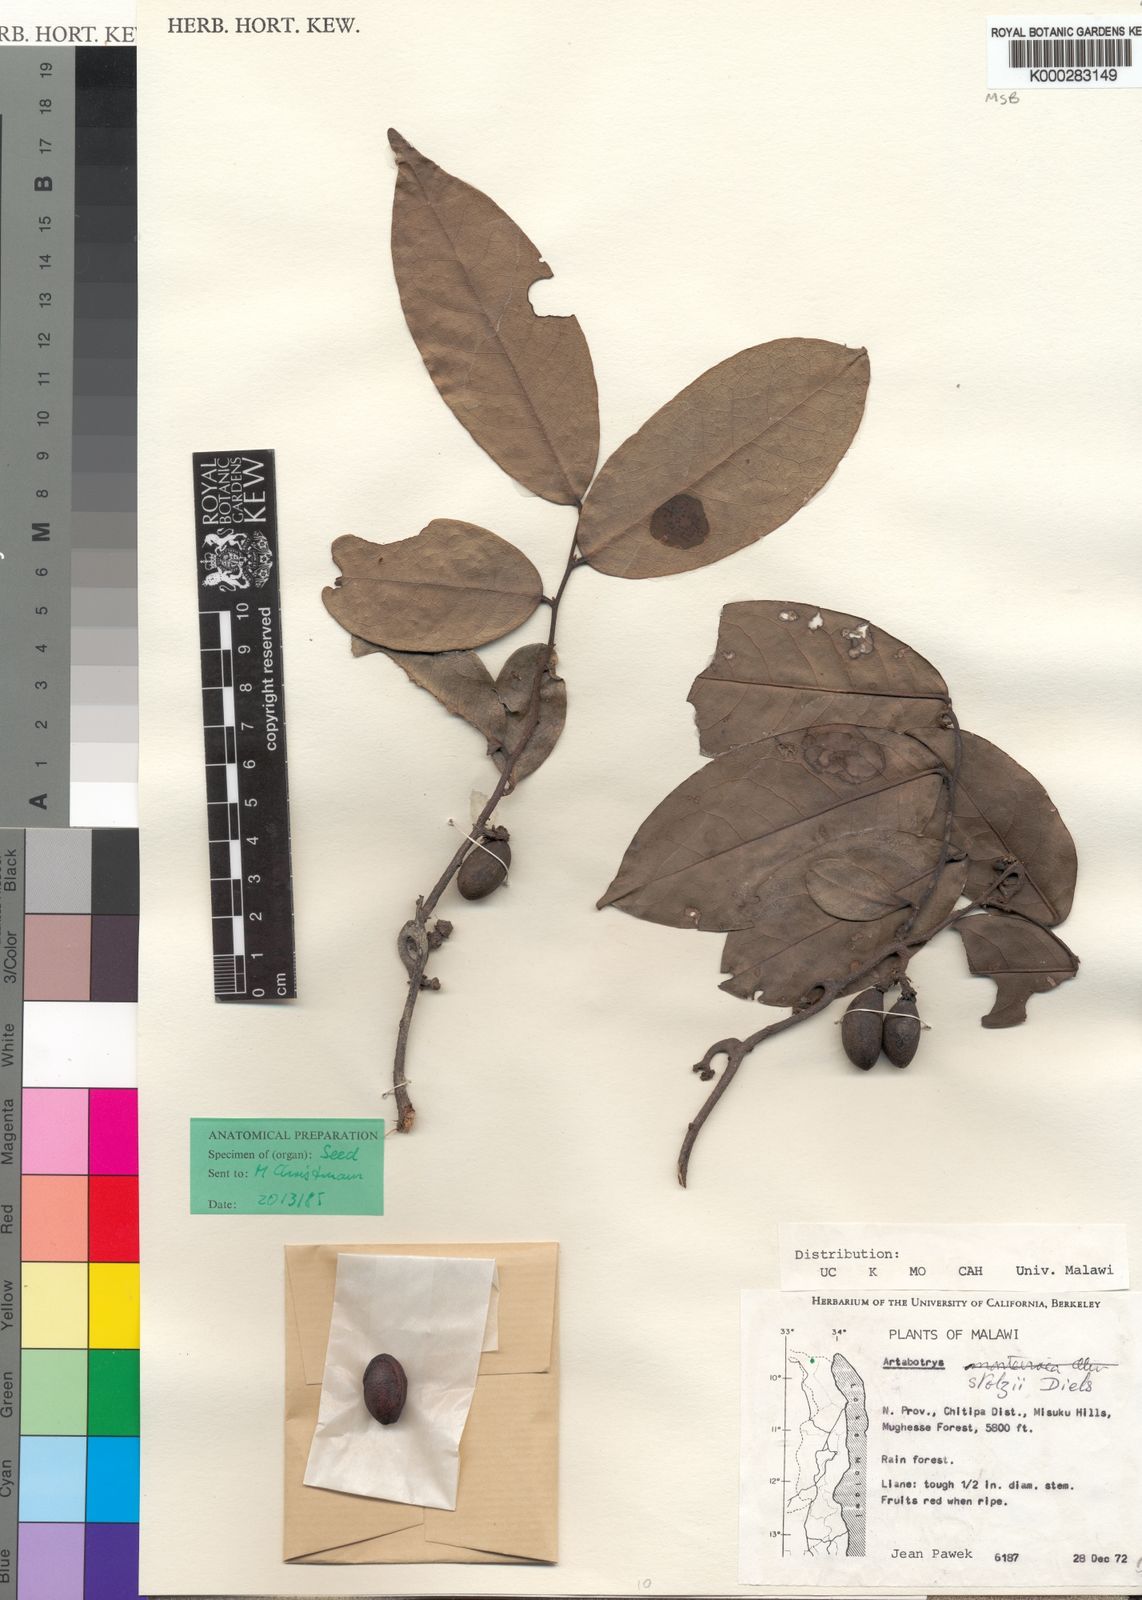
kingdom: Plantae
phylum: Tracheophyta
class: Magnoliopsida
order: Magnoliales
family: Annonaceae
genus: Artabotrys
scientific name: Artabotrys stolzii
